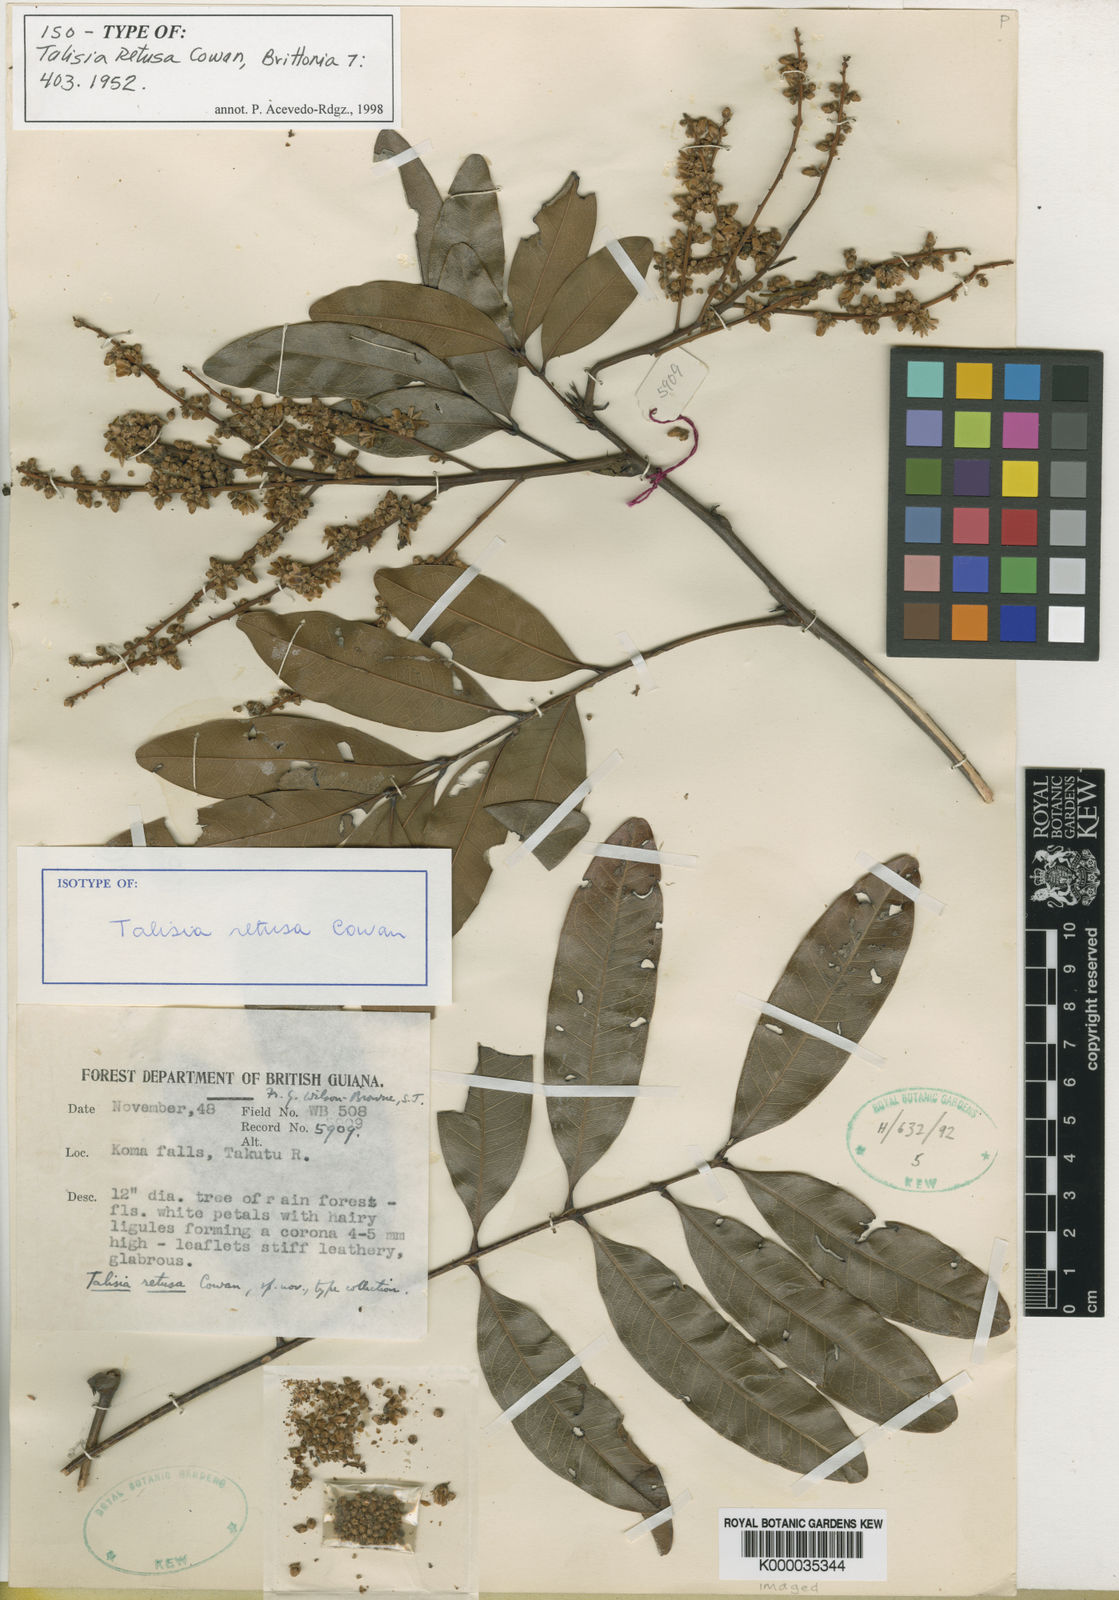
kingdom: Plantae
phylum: Tracheophyta
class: Magnoliopsida
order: Sapindales
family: Sapindaceae
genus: Talisia
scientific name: Talisia retusa
